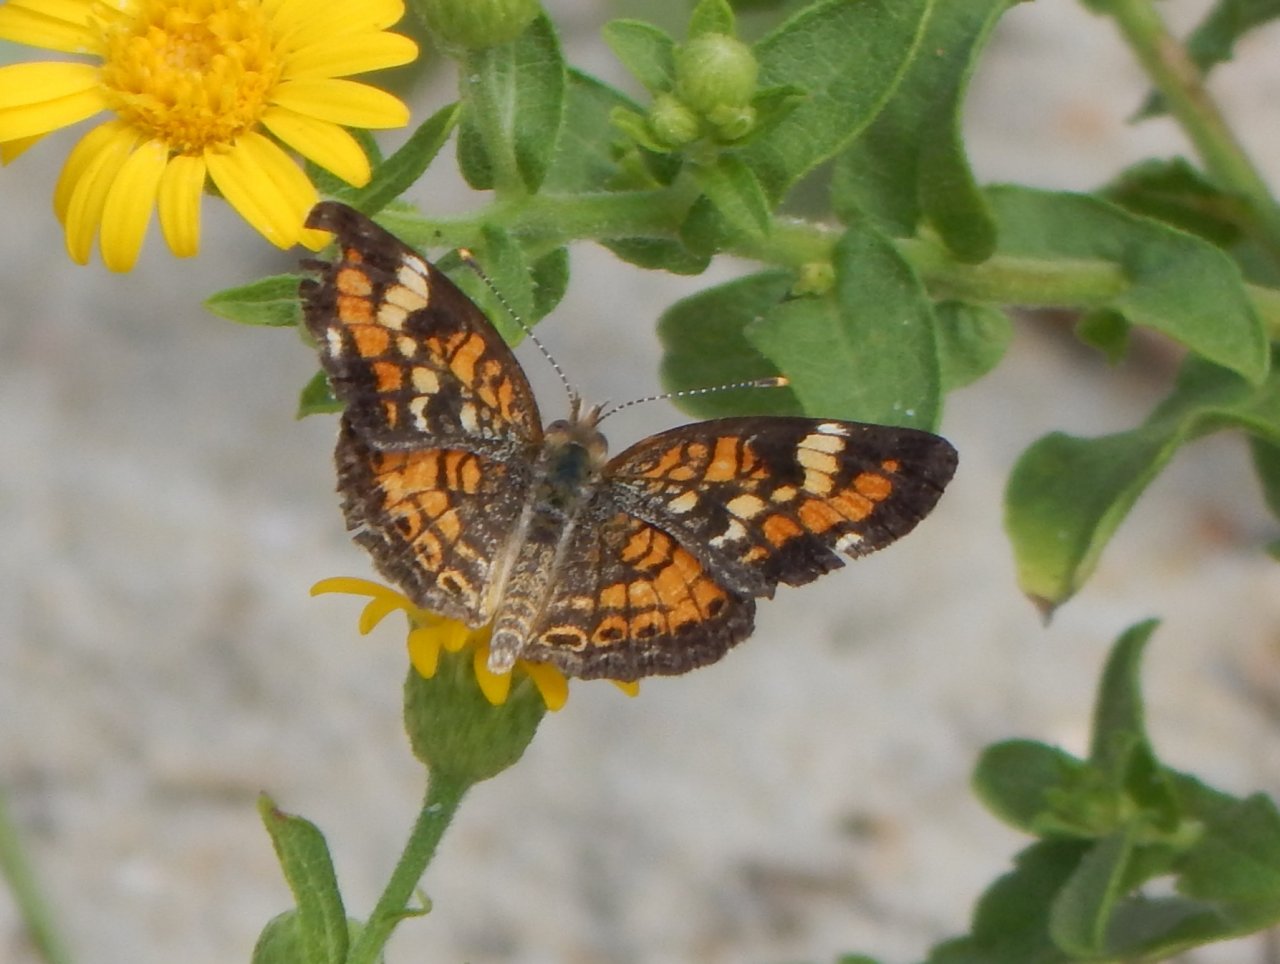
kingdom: Animalia
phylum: Arthropoda
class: Insecta
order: Lepidoptera
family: Nymphalidae
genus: Phyciodes
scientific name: Phyciodes phaon
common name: Phaon Crescent
